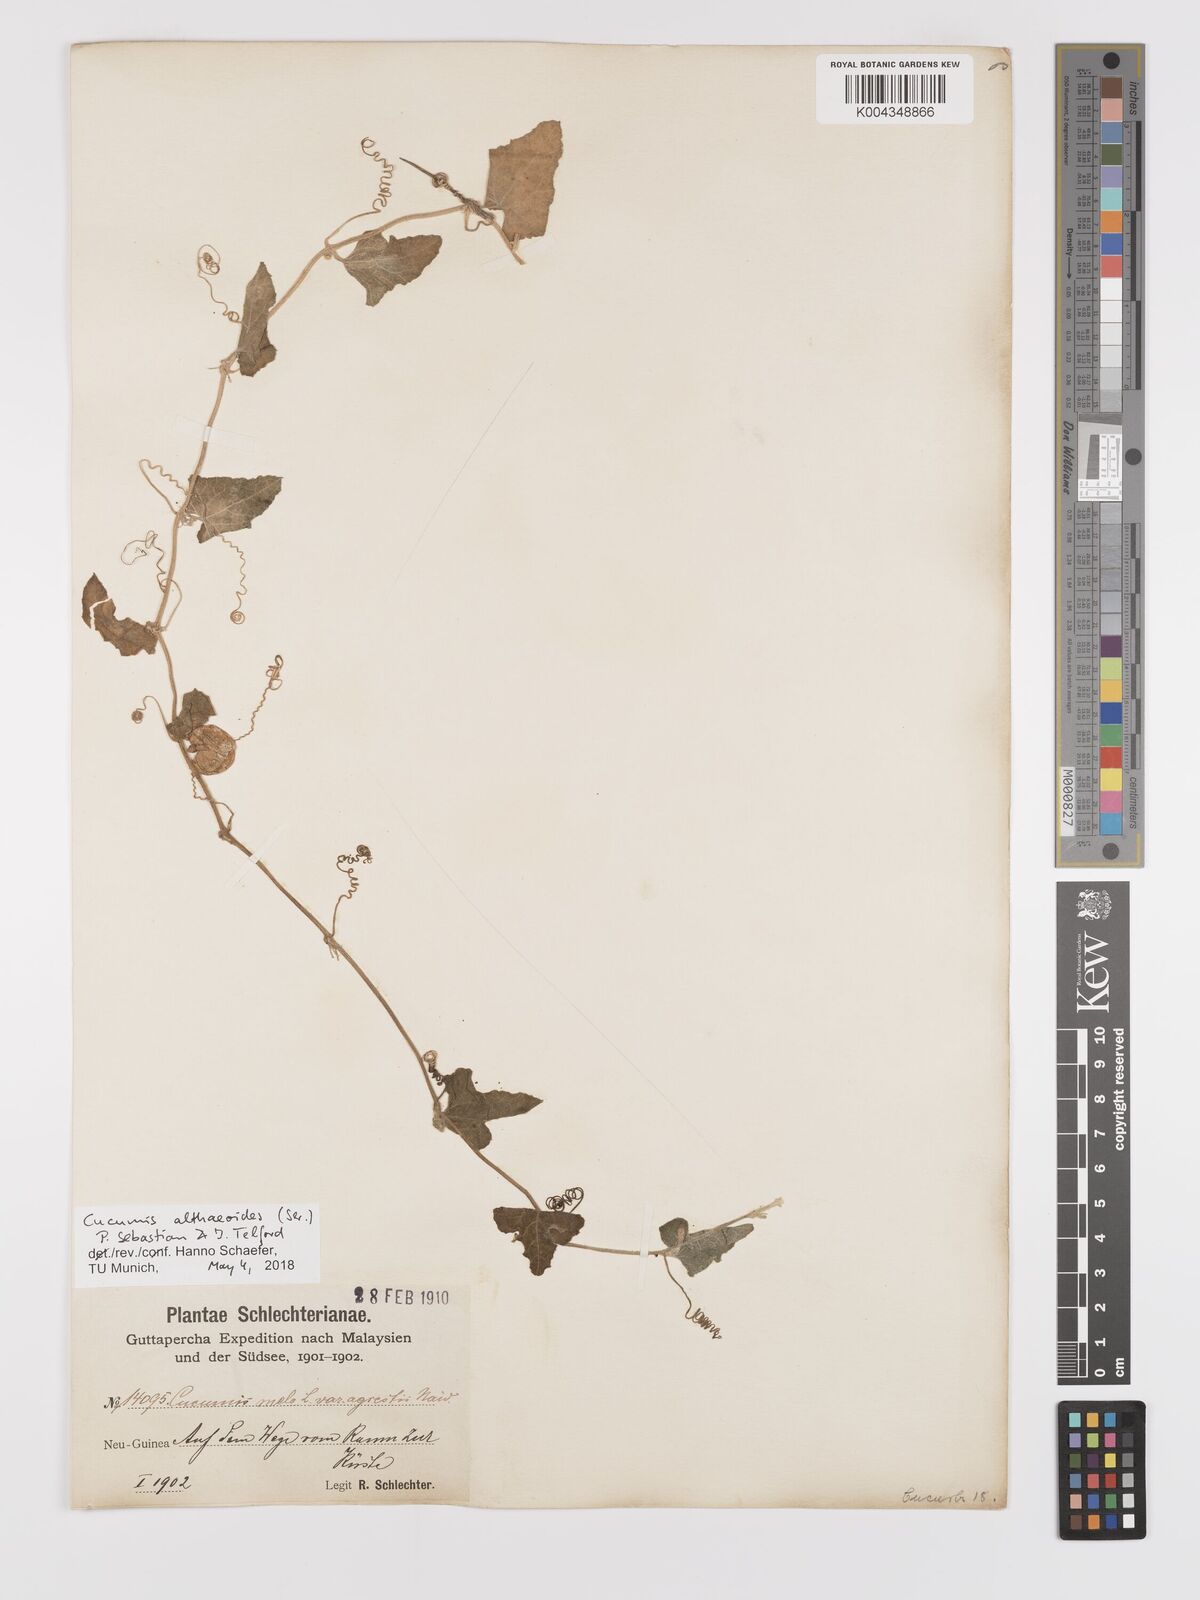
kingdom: Plantae
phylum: Tracheophyta
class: Magnoliopsida
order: Cucurbitales
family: Cucurbitaceae
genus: Cucumis
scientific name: Cucumis maderaspatanus
